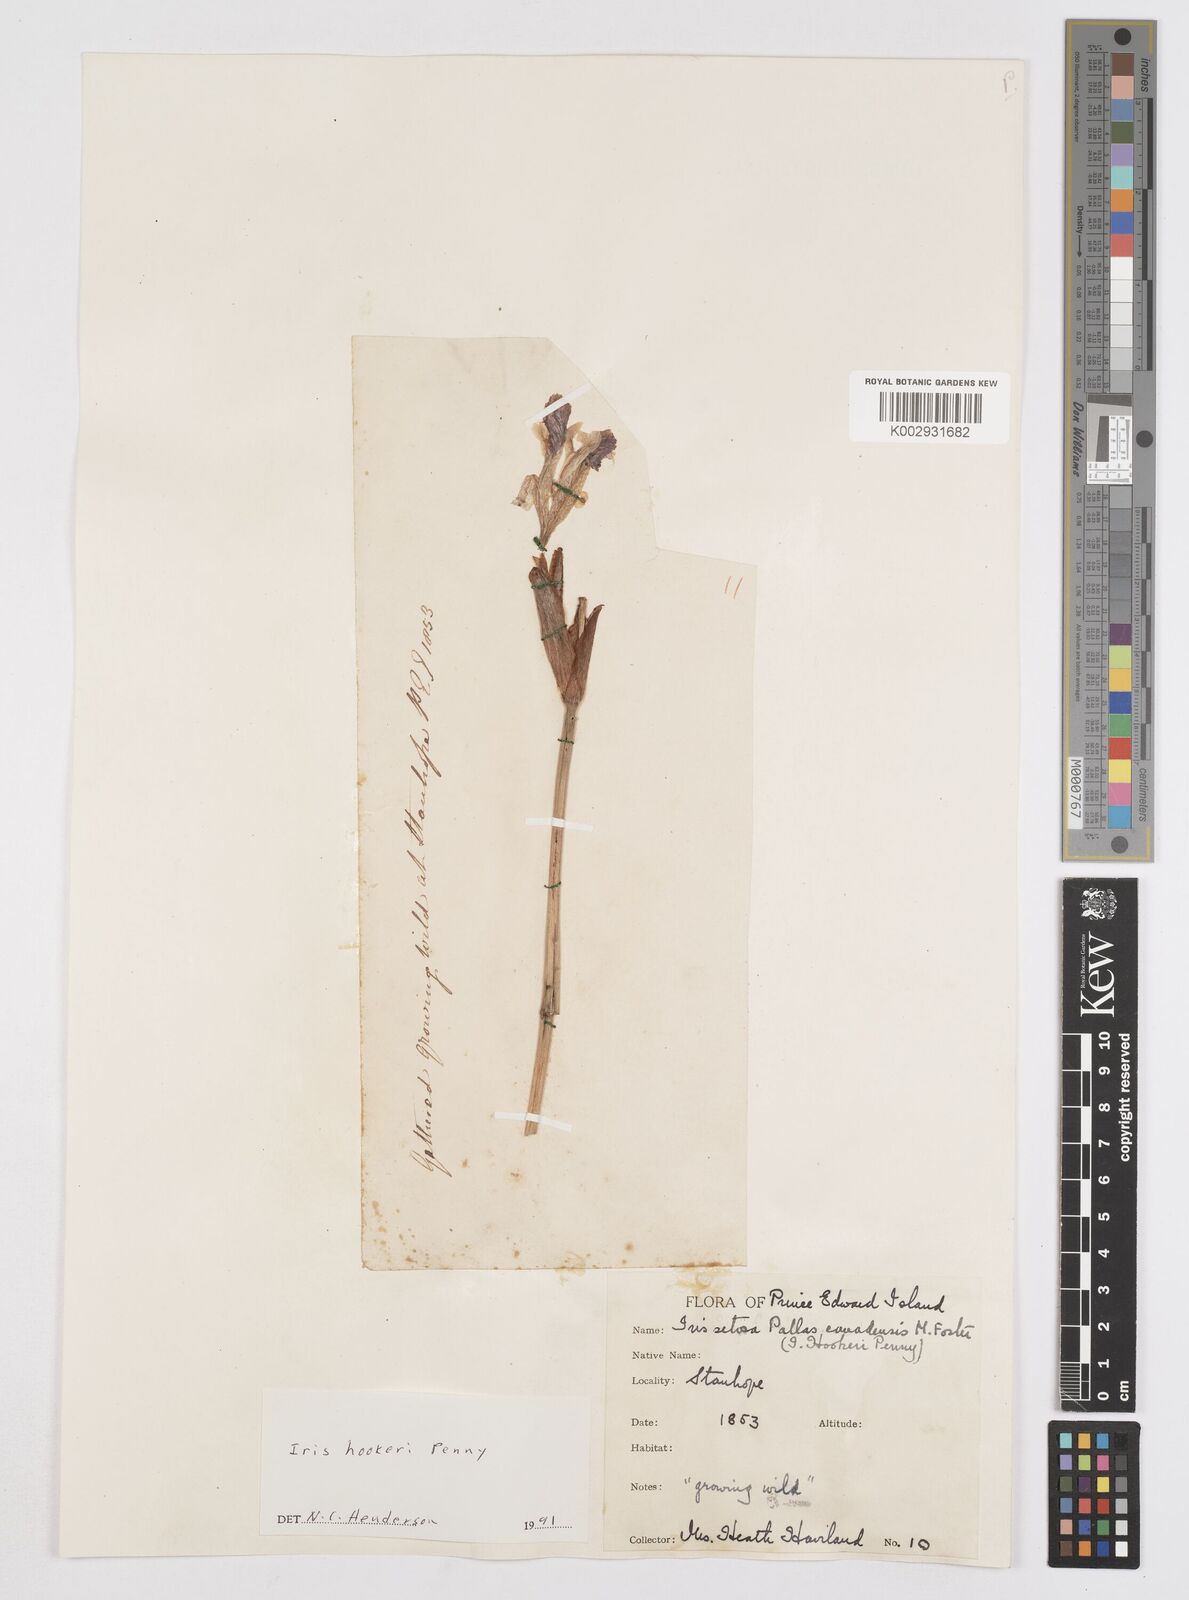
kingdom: Plantae
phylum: Tracheophyta
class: Liliopsida
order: Asparagales
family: Iridaceae
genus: Iris
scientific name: Iris setosa
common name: Arctic blue flag
